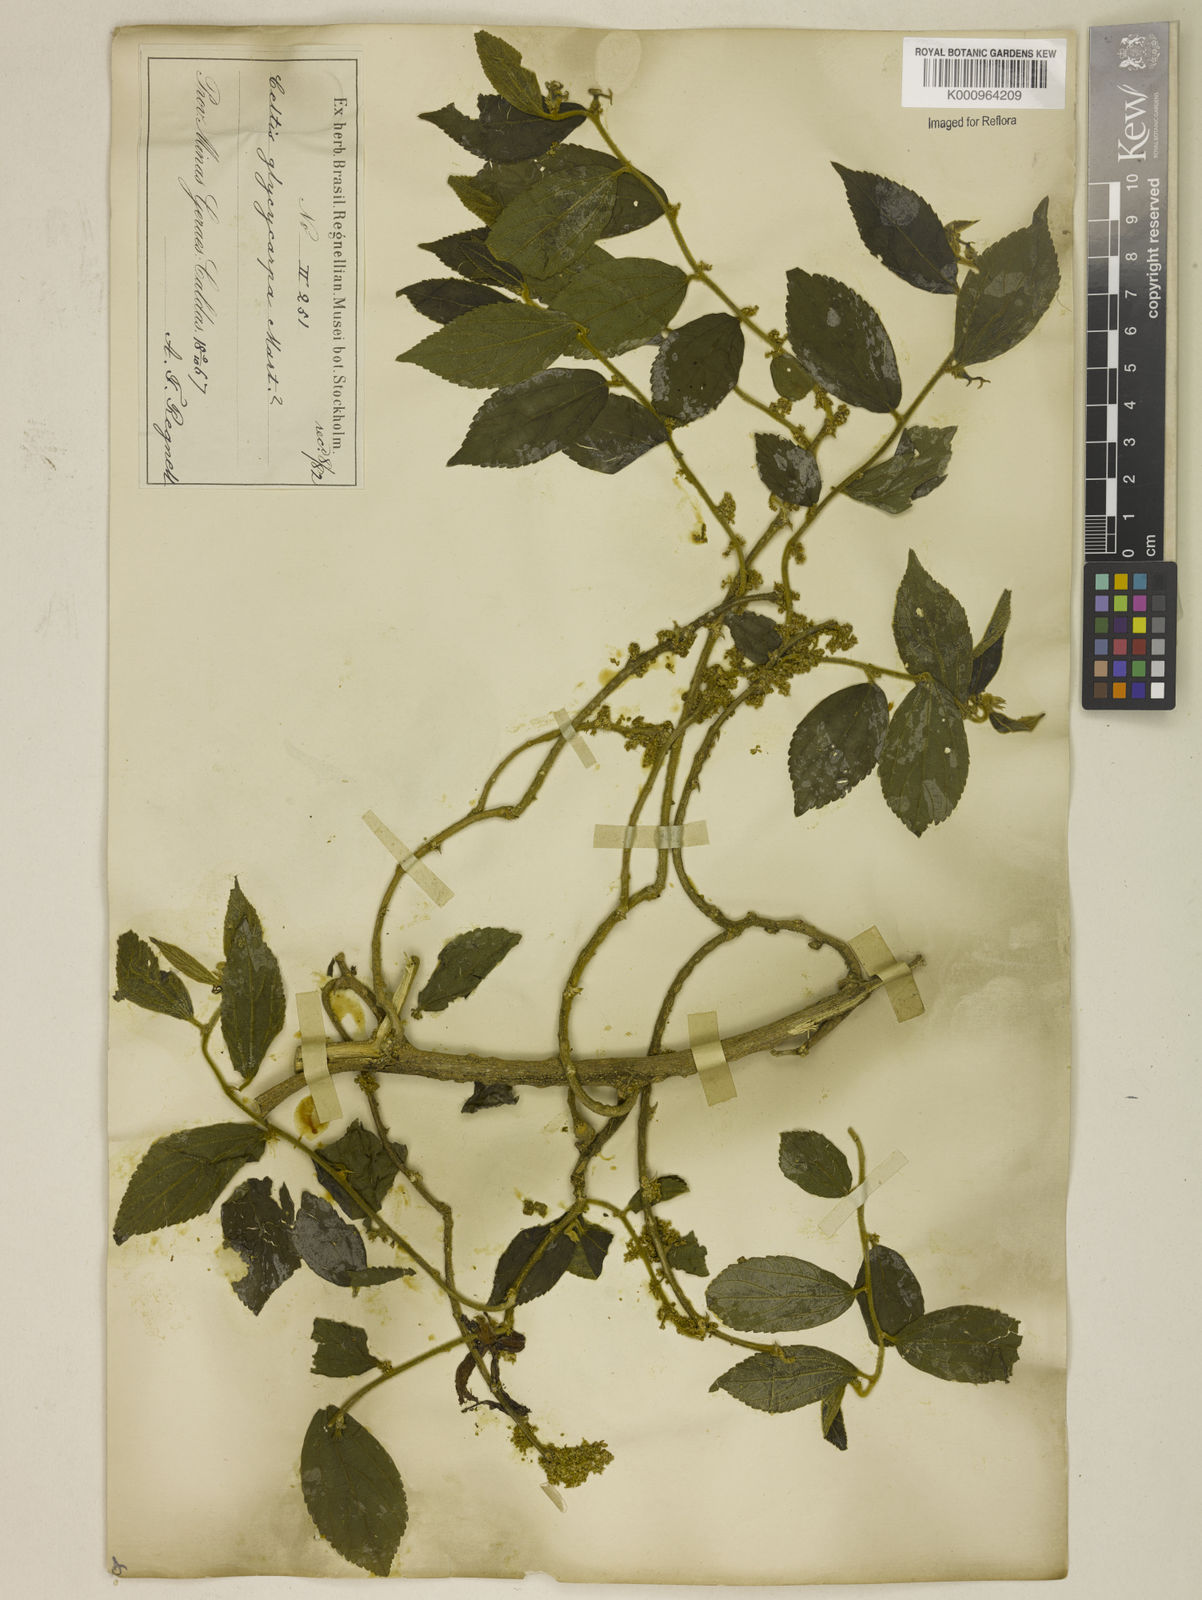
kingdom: Plantae
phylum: Tracheophyta
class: Magnoliopsida
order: Rosales
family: Cannabaceae
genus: Celtis
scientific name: Celtis iguanaea
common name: Iguana hackberry
